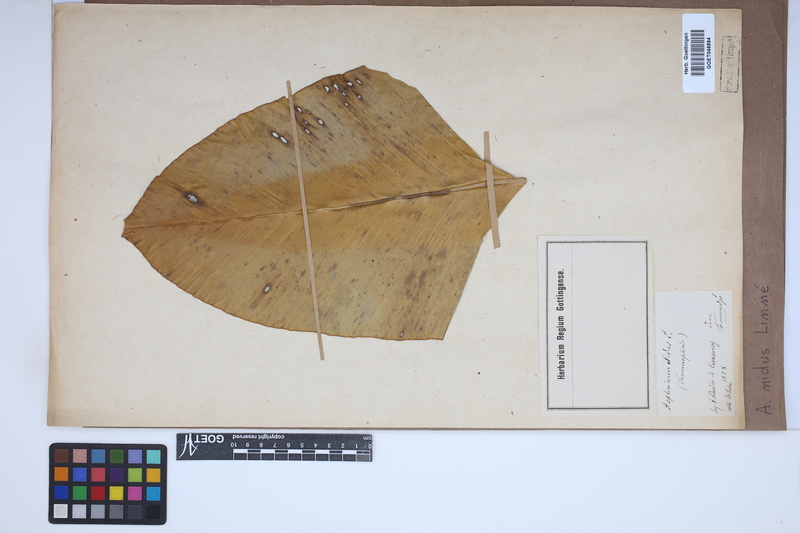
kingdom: Plantae
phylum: Tracheophyta
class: Polypodiopsida
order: Polypodiales
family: Aspleniaceae
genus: Asplenium
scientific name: Asplenium nidus
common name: Bird's-nest fern
